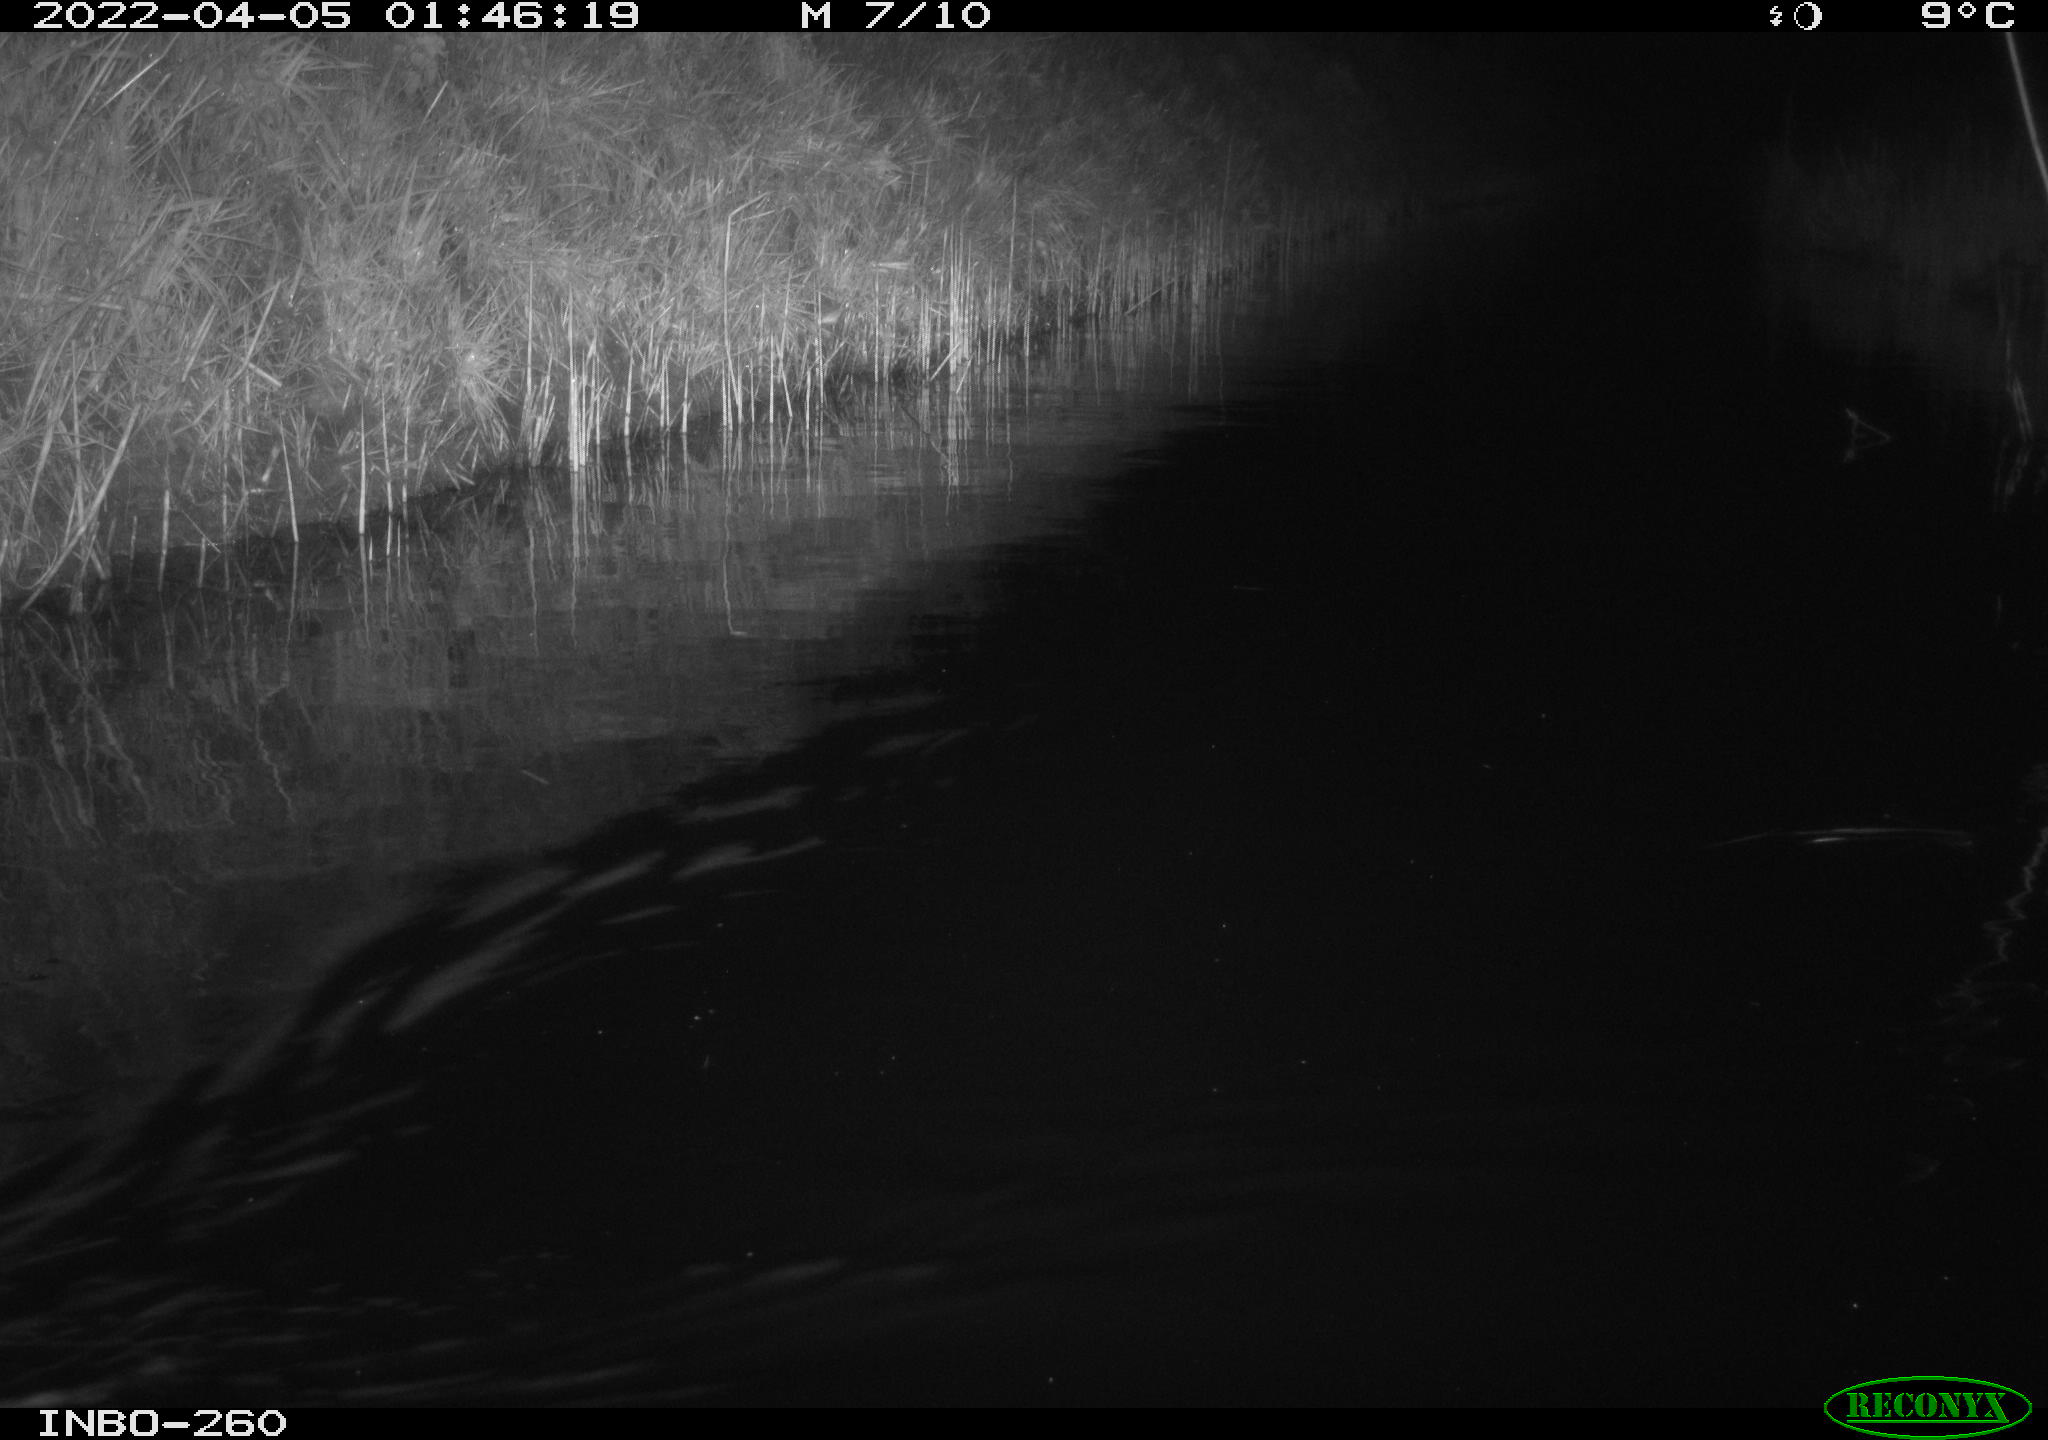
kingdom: Animalia
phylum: Chordata
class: Mammalia
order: Rodentia
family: Muridae
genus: Rattus
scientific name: Rattus norvegicus
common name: Brown rat
